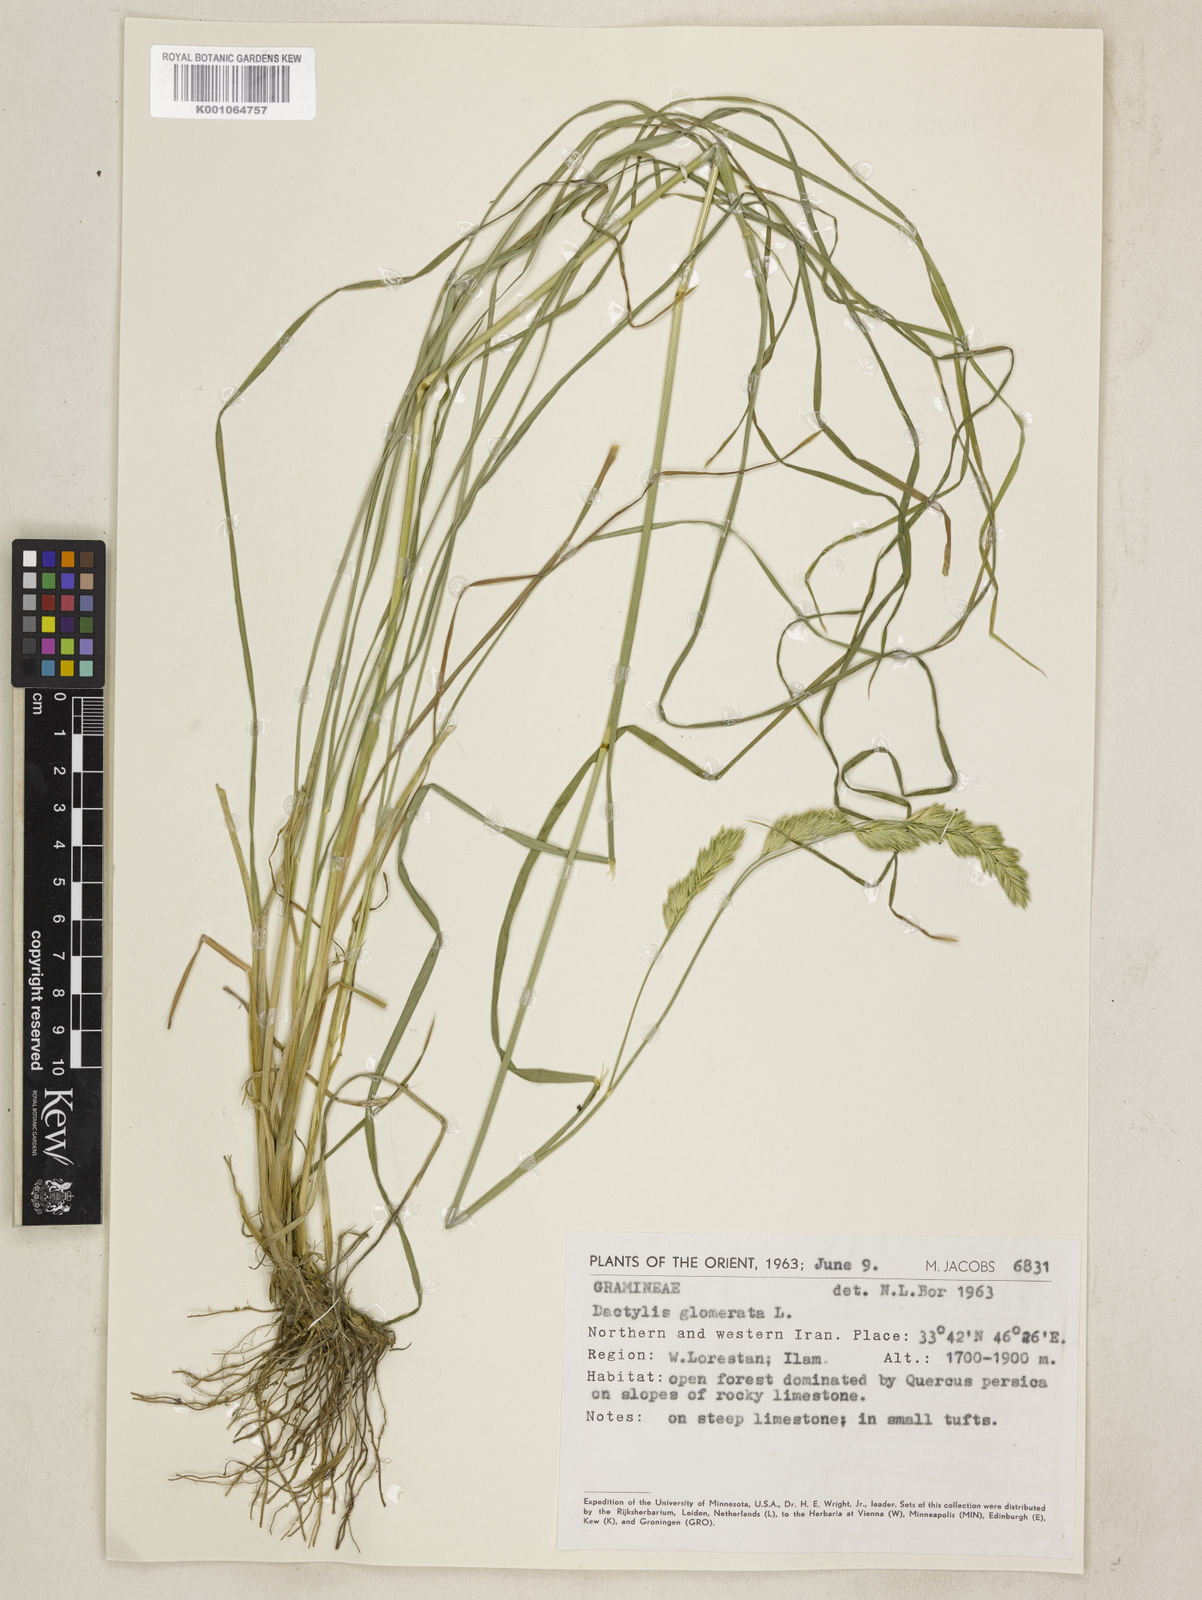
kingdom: Plantae
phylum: Tracheophyta
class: Liliopsida
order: Poales
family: Poaceae
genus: Dactylis
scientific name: Dactylis glomerata
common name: Orchardgrass
